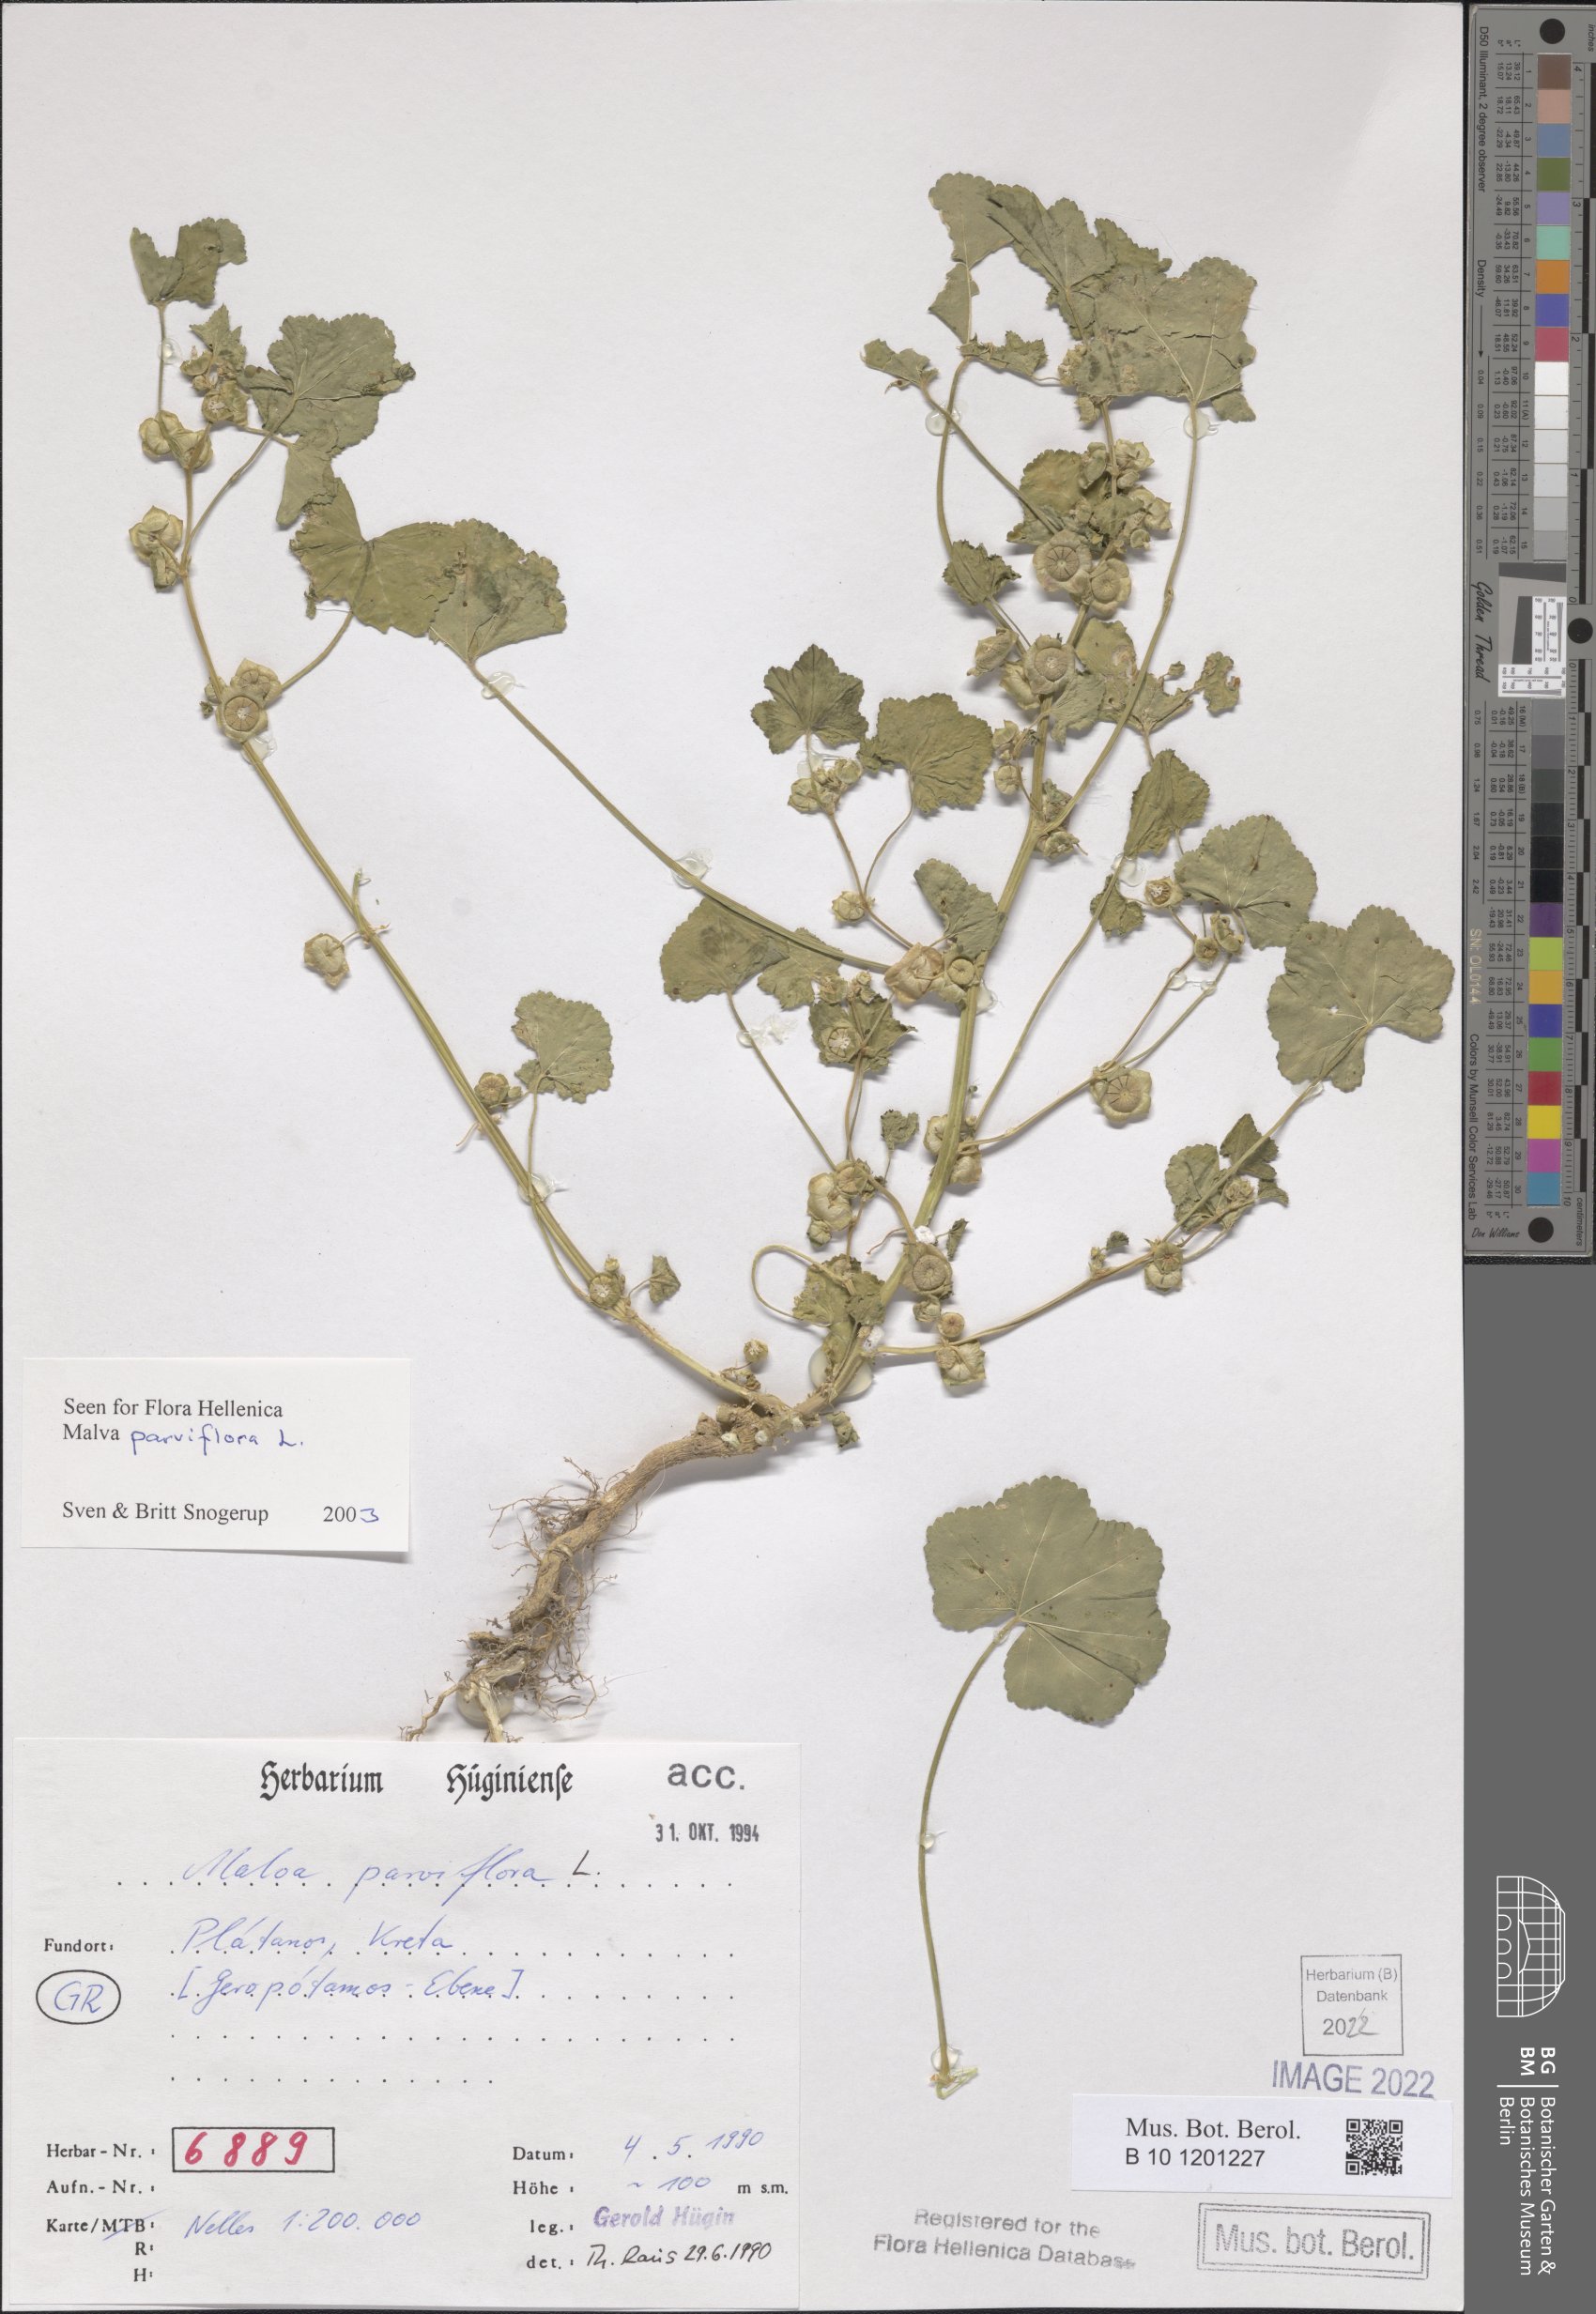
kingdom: Plantae
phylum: Tracheophyta
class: Magnoliopsida
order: Malvales
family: Malvaceae
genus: Malva
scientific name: Malva parviflora
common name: Least mallow
